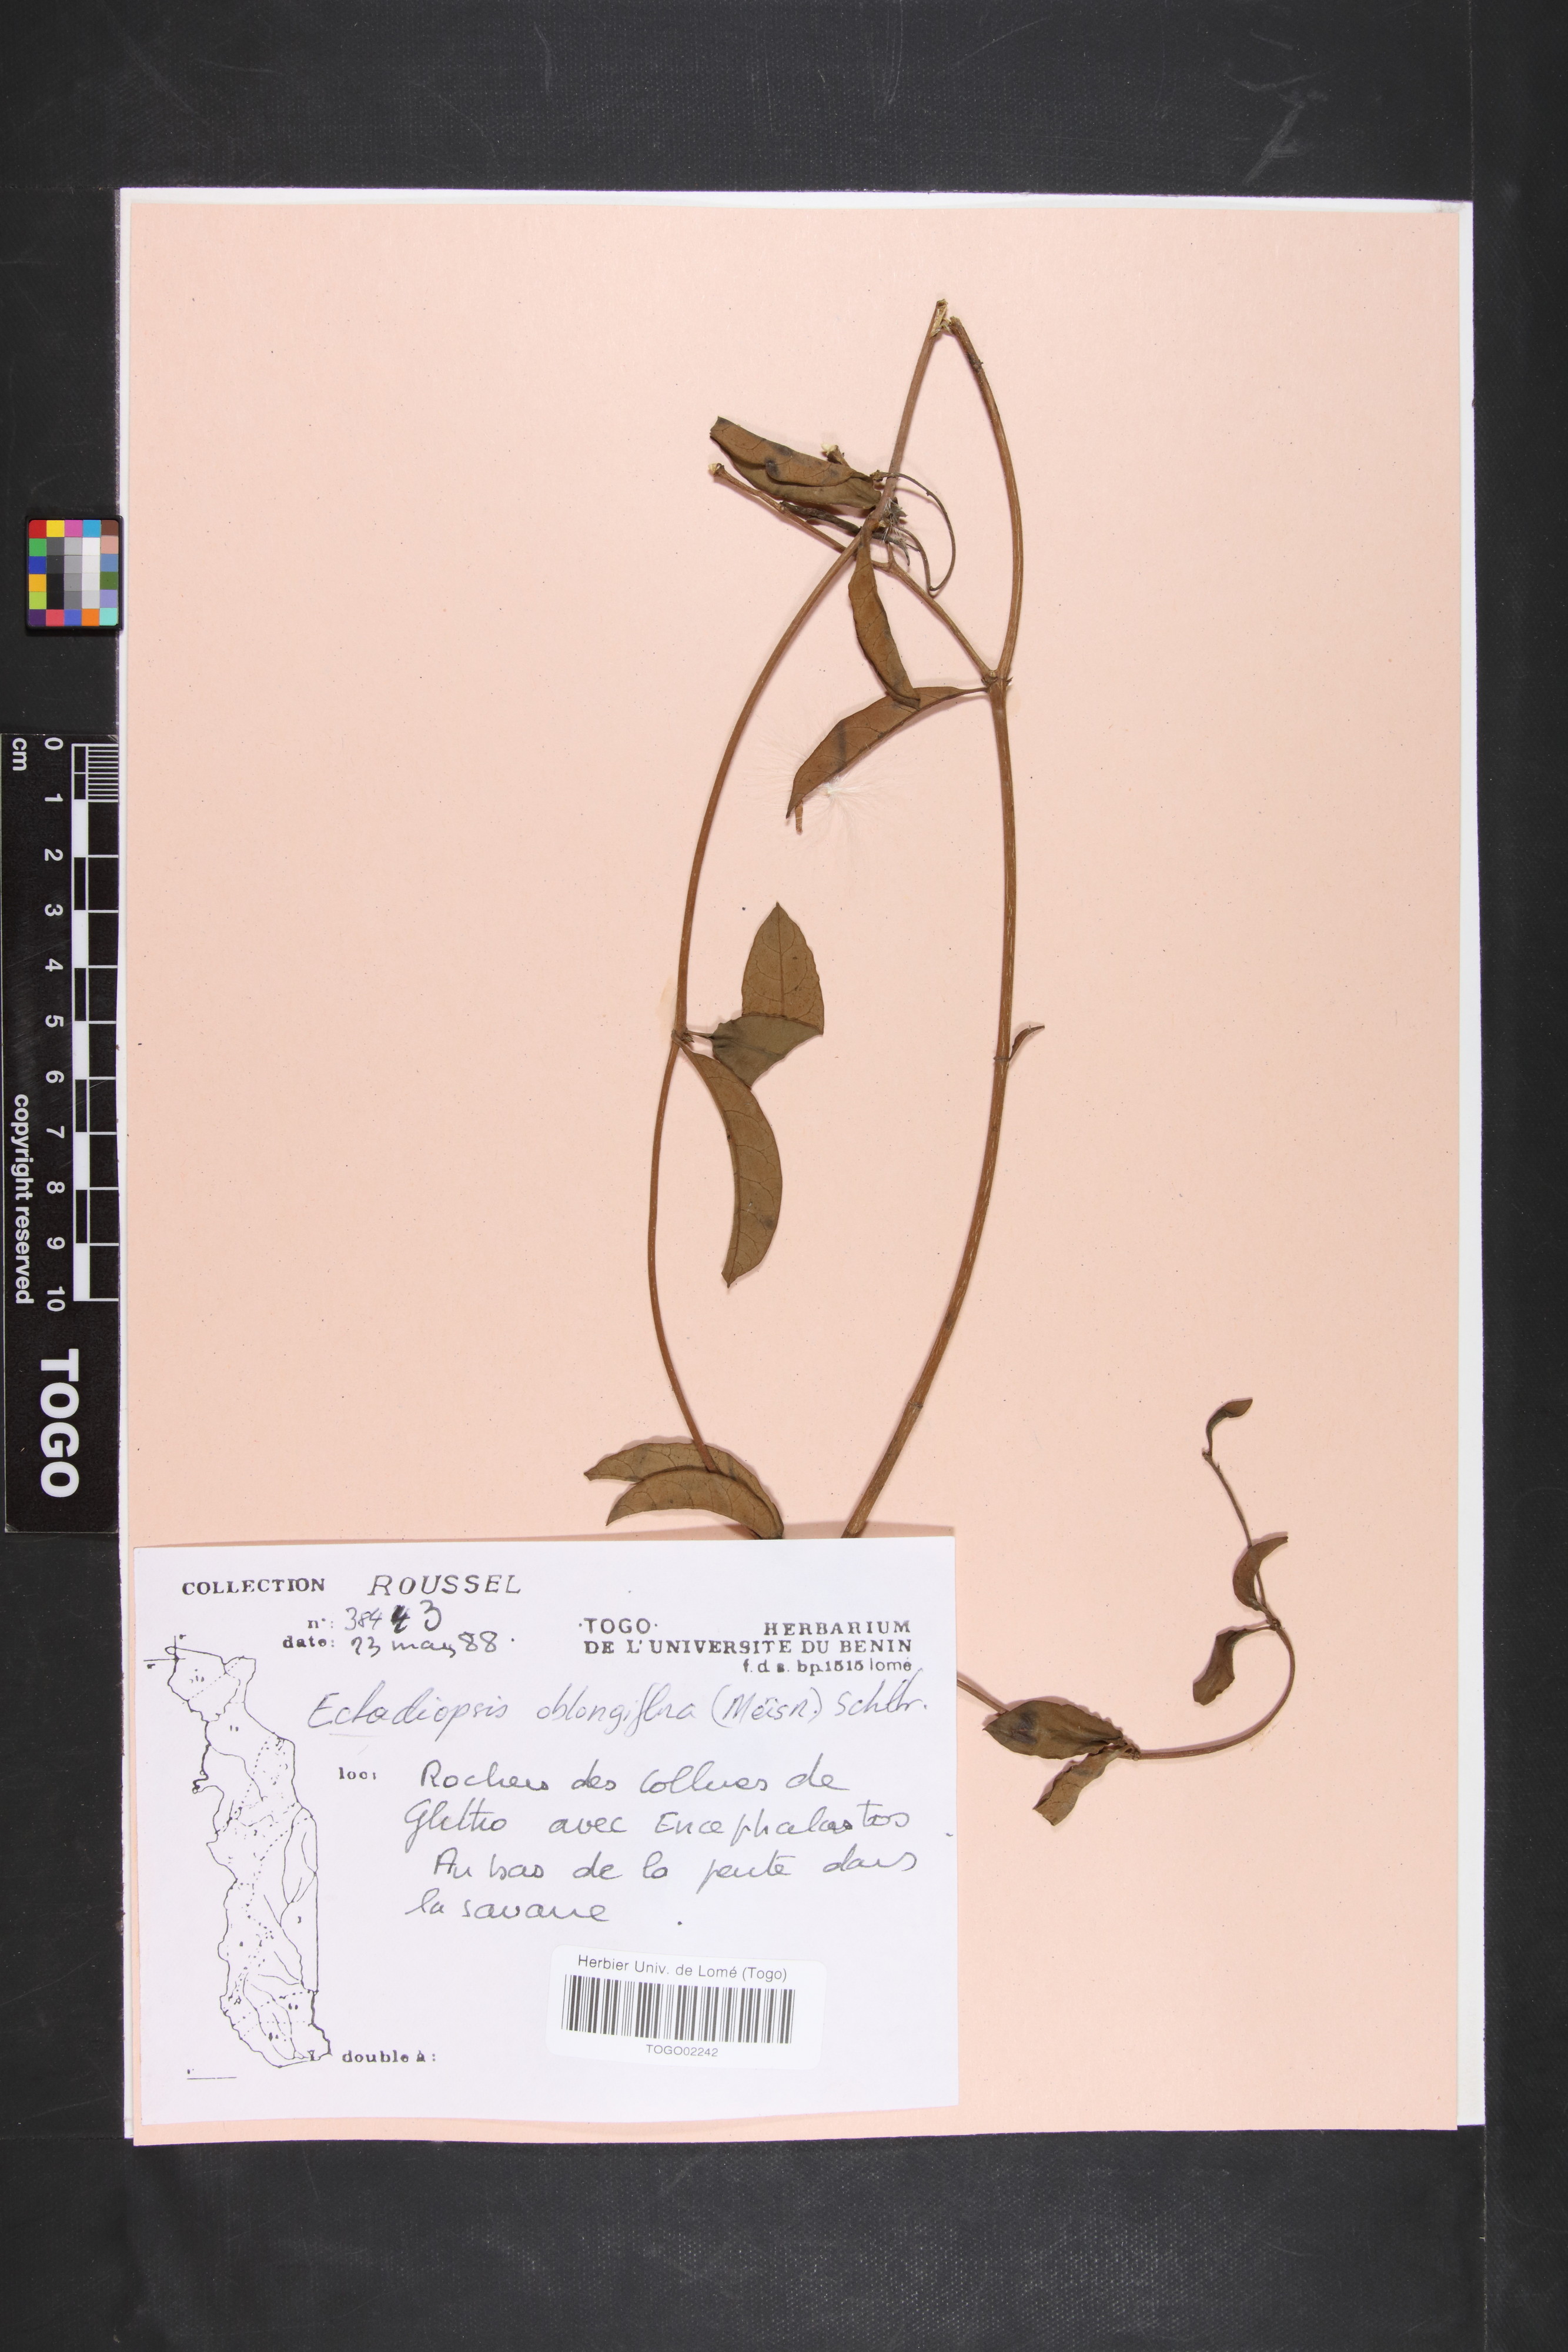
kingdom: Plantae
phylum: Tracheophyta
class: Magnoliopsida
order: Gentianales
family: Apocynaceae
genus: Cryptolepis
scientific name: Cryptolepis oblongifolia
